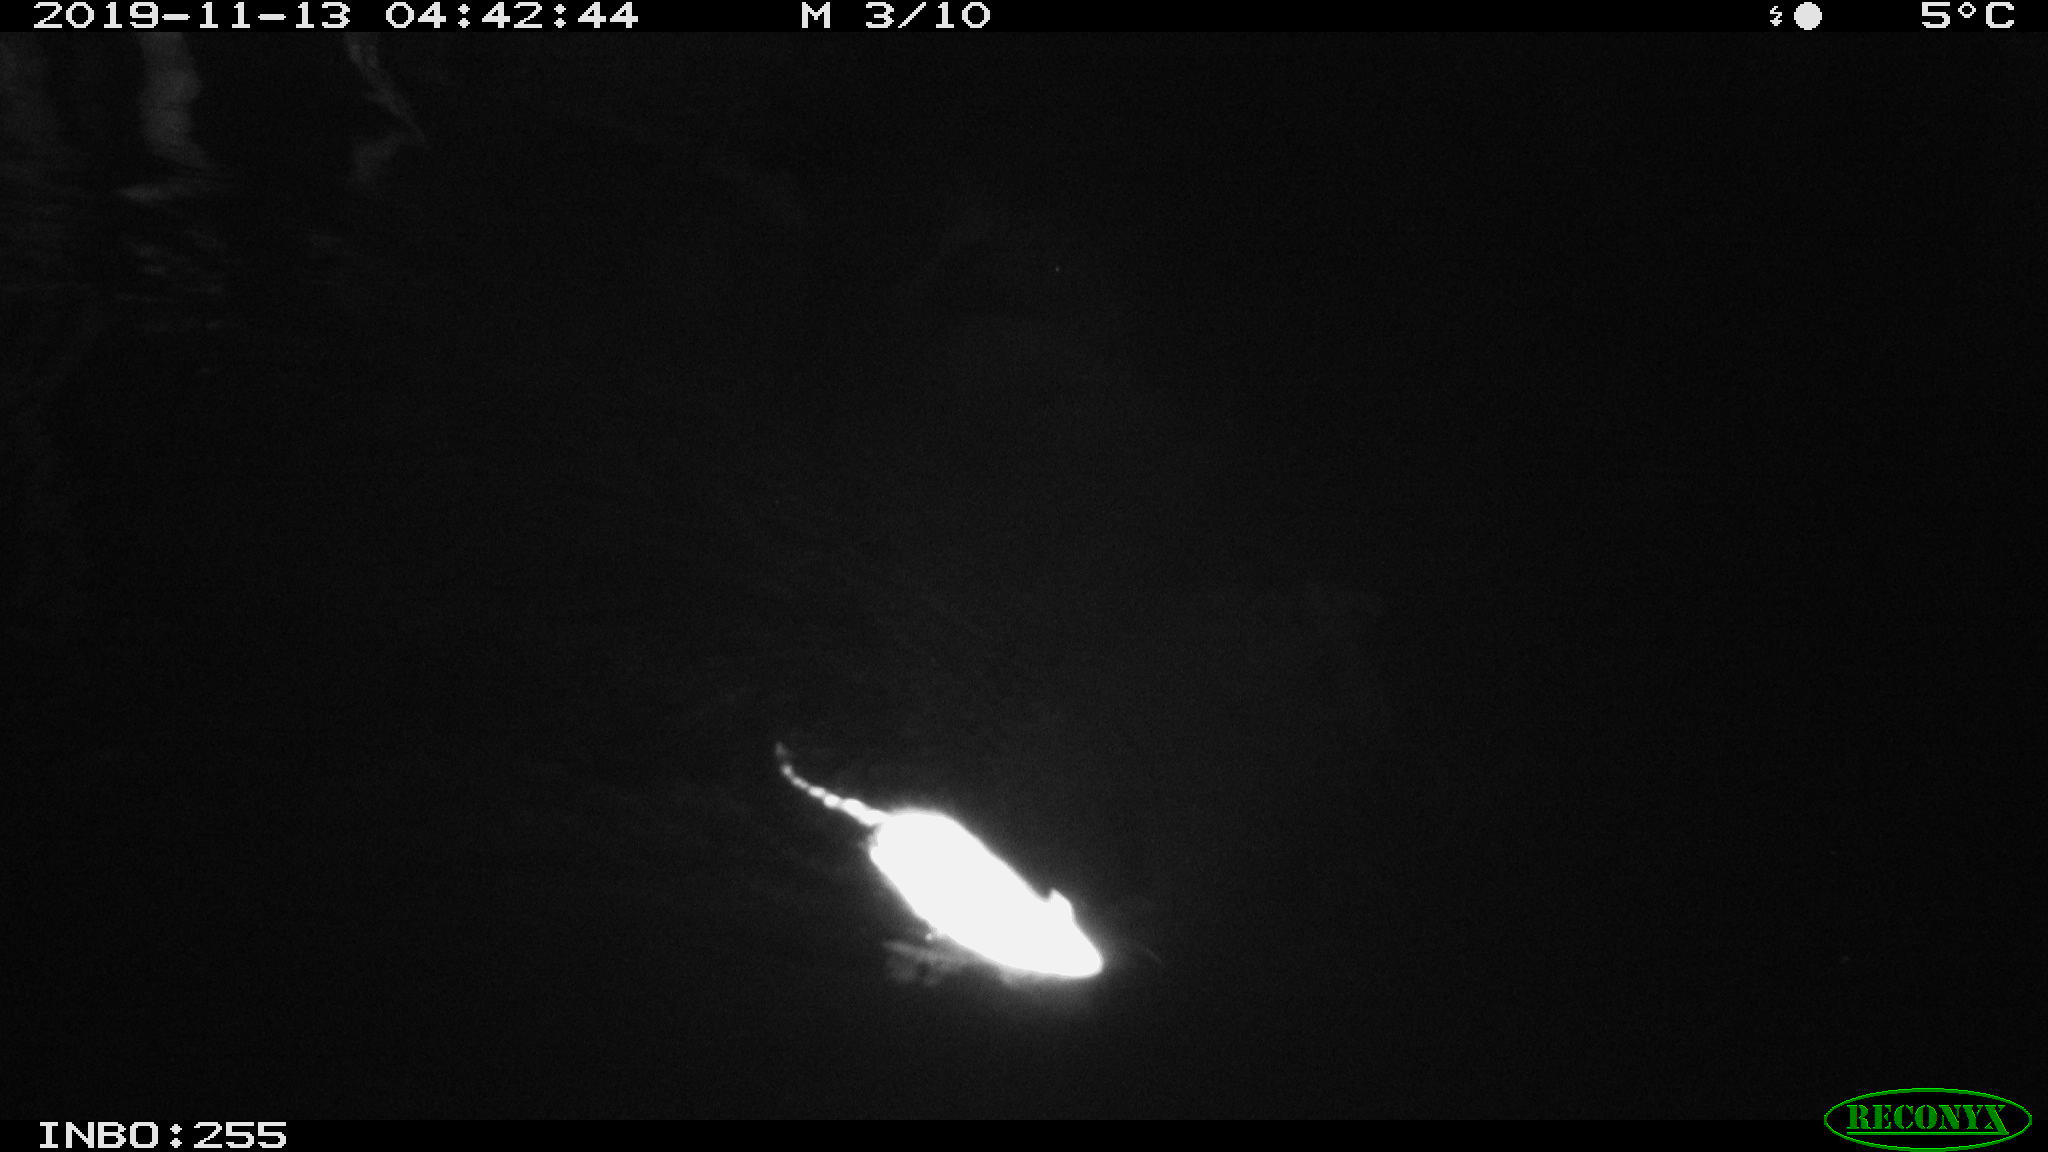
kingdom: Animalia
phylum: Chordata
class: Mammalia
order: Rodentia
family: Muridae
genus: Rattus
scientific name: Rattus norvegicus
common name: Brown rat
